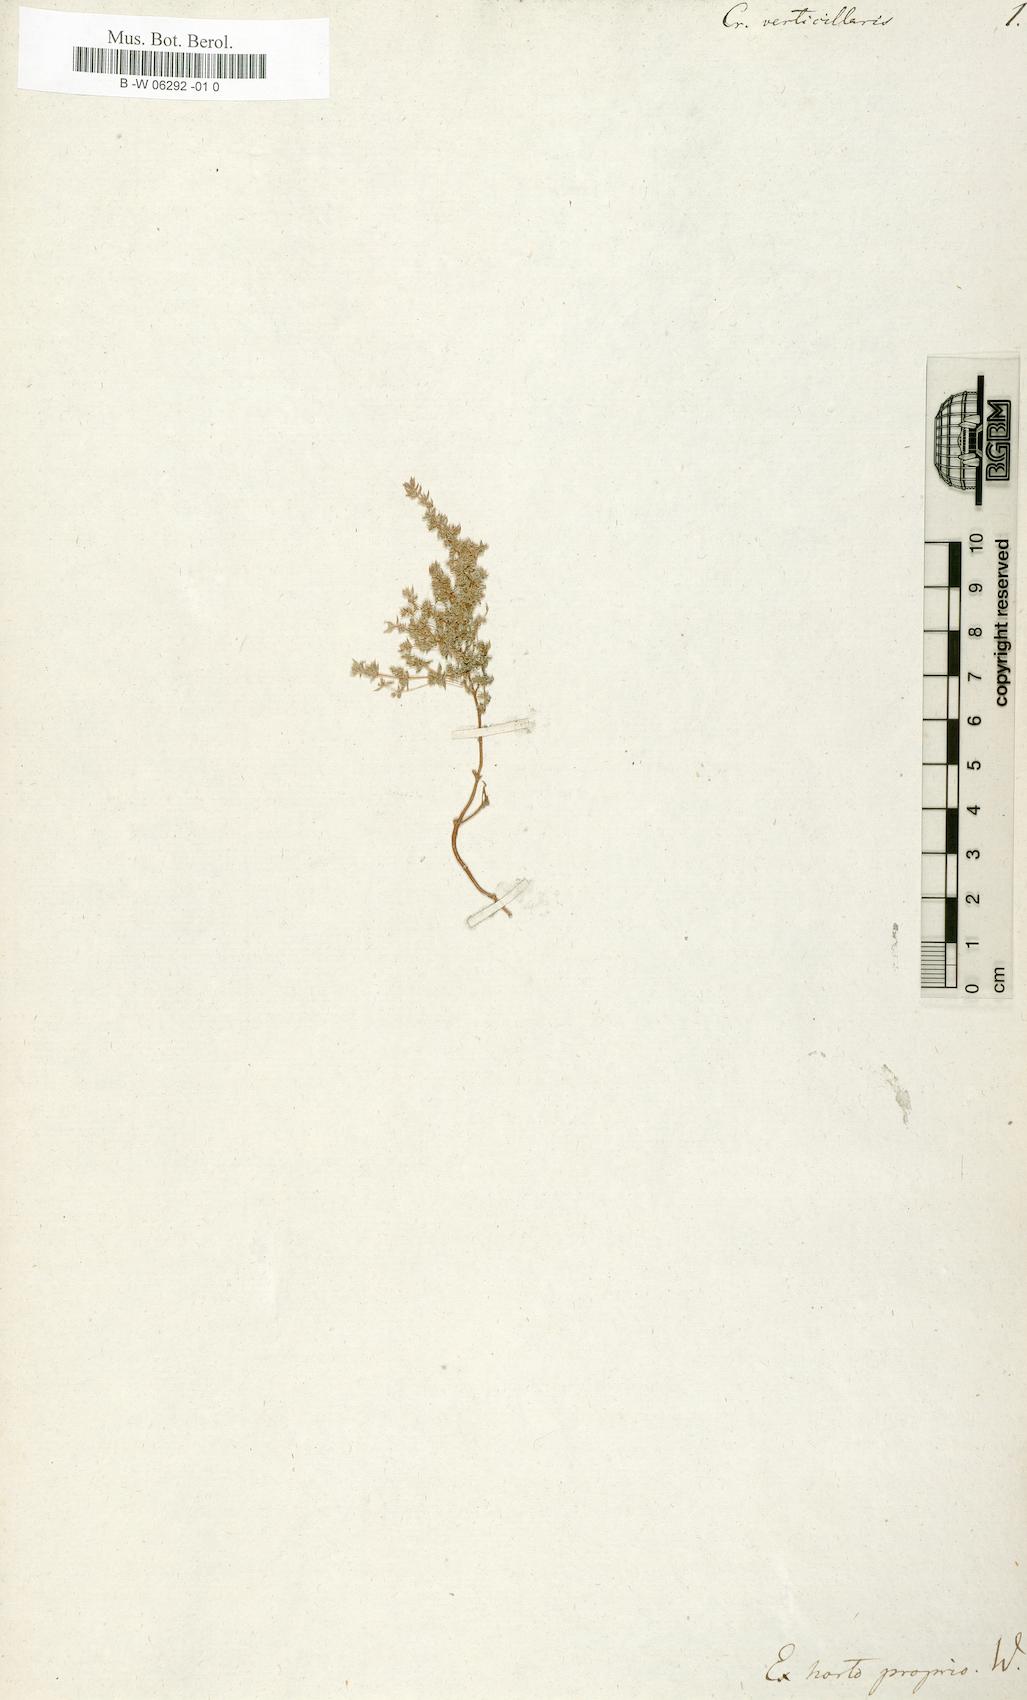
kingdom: Plantae
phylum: Tracheophyta
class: Magnoliopsida
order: Saxifragales
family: Crassulaceae
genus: Sedum
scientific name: Sedum cespitosum
